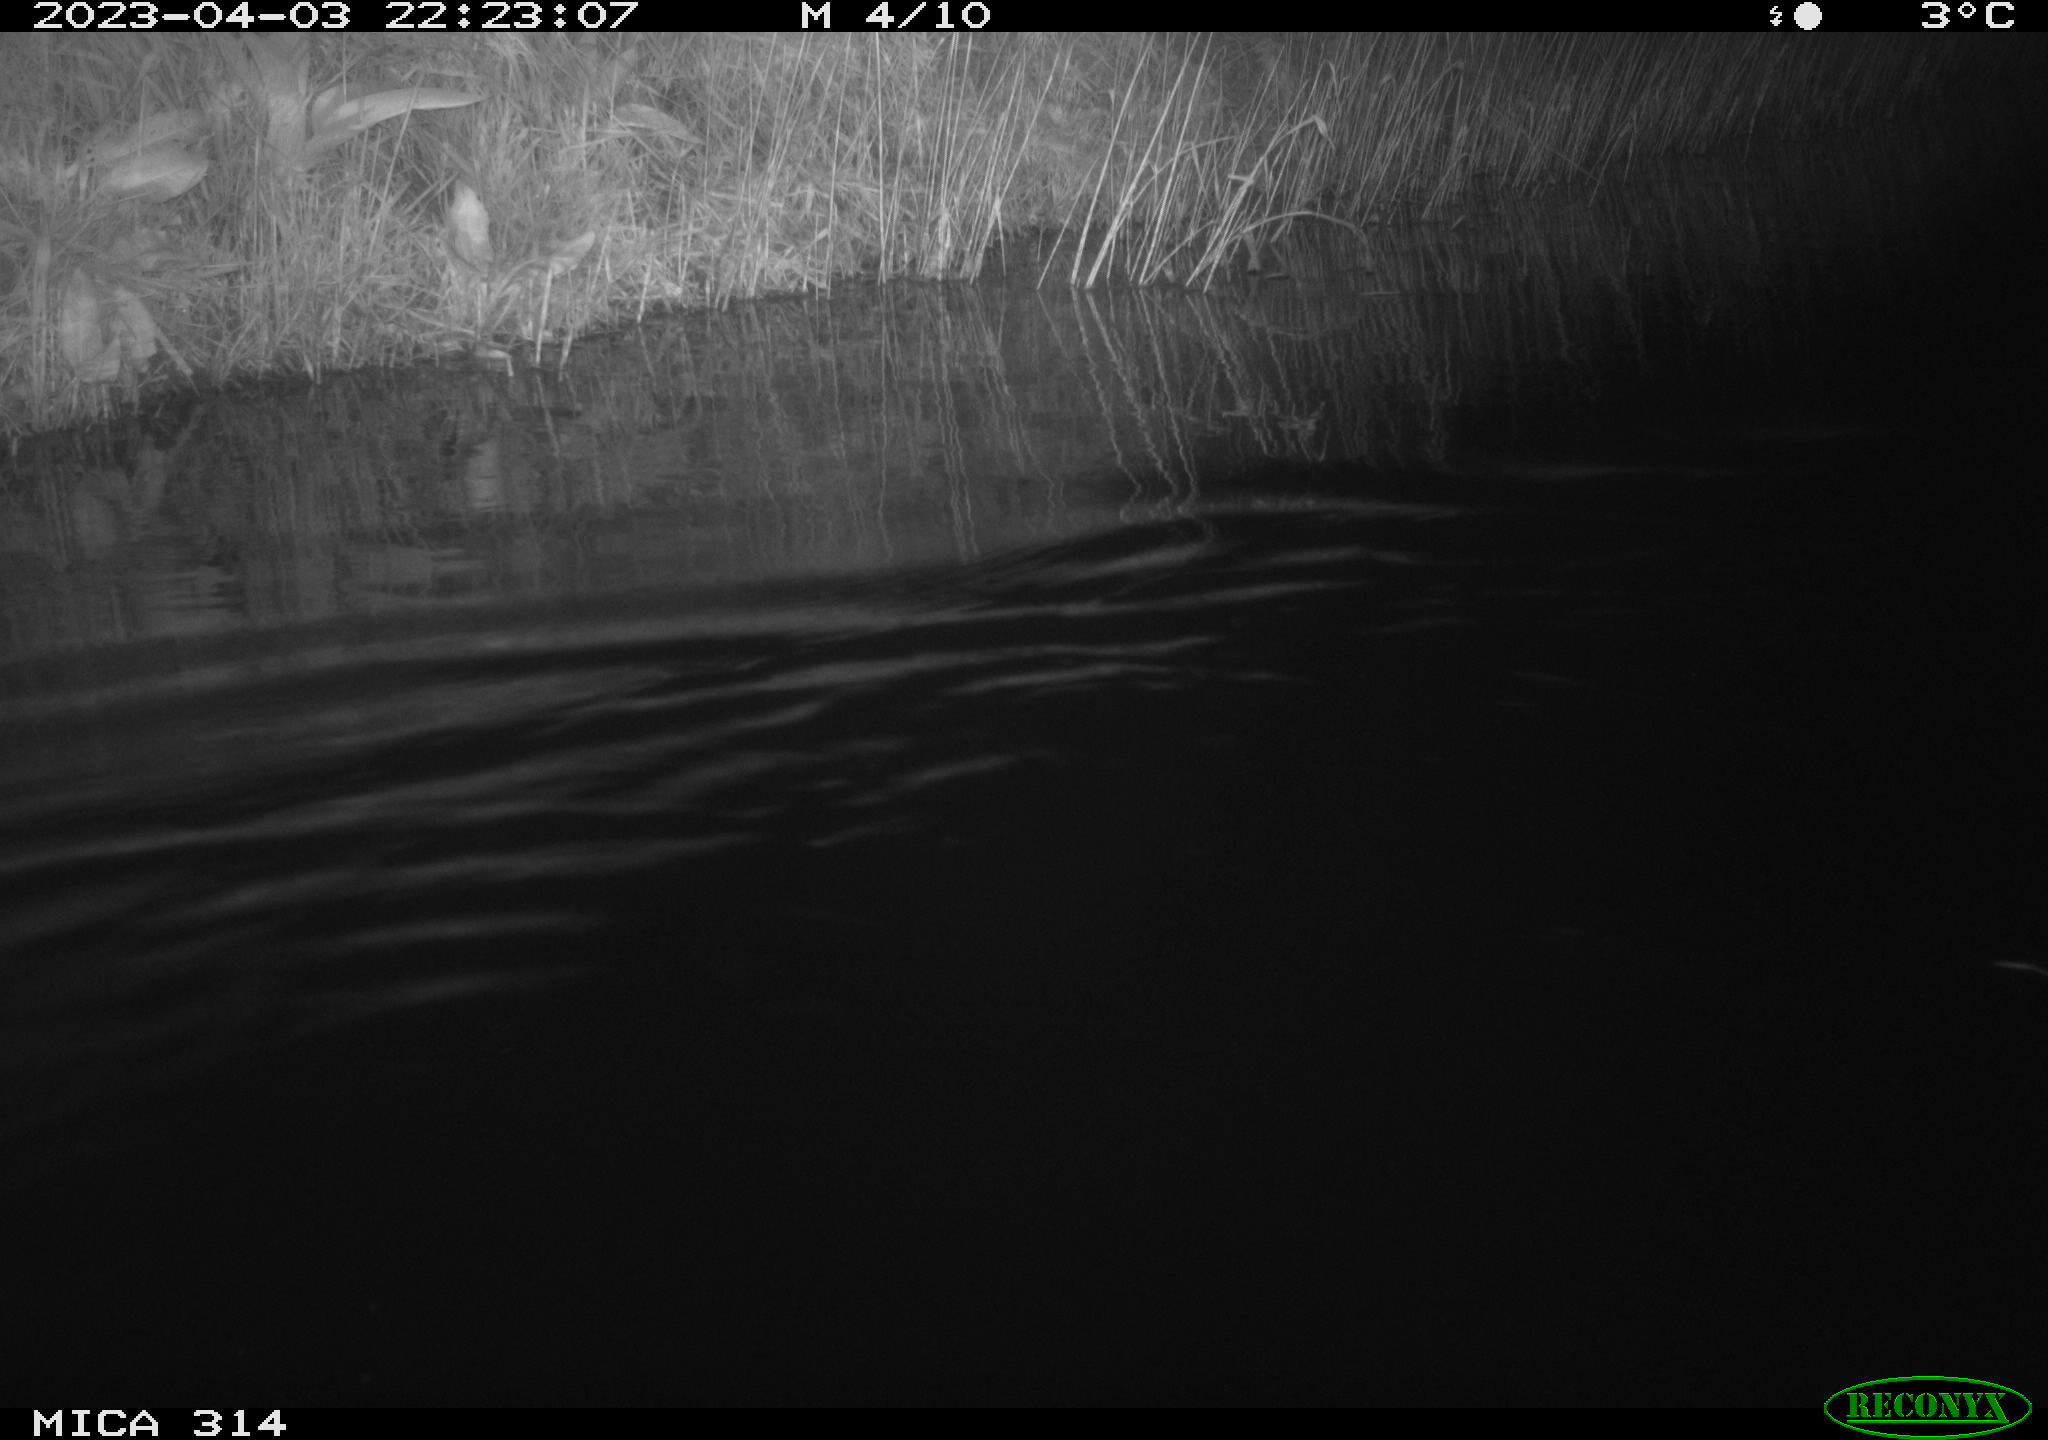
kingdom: Animalia
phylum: Chordata
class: Mammalia
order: Rodentia
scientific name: Rodentia
